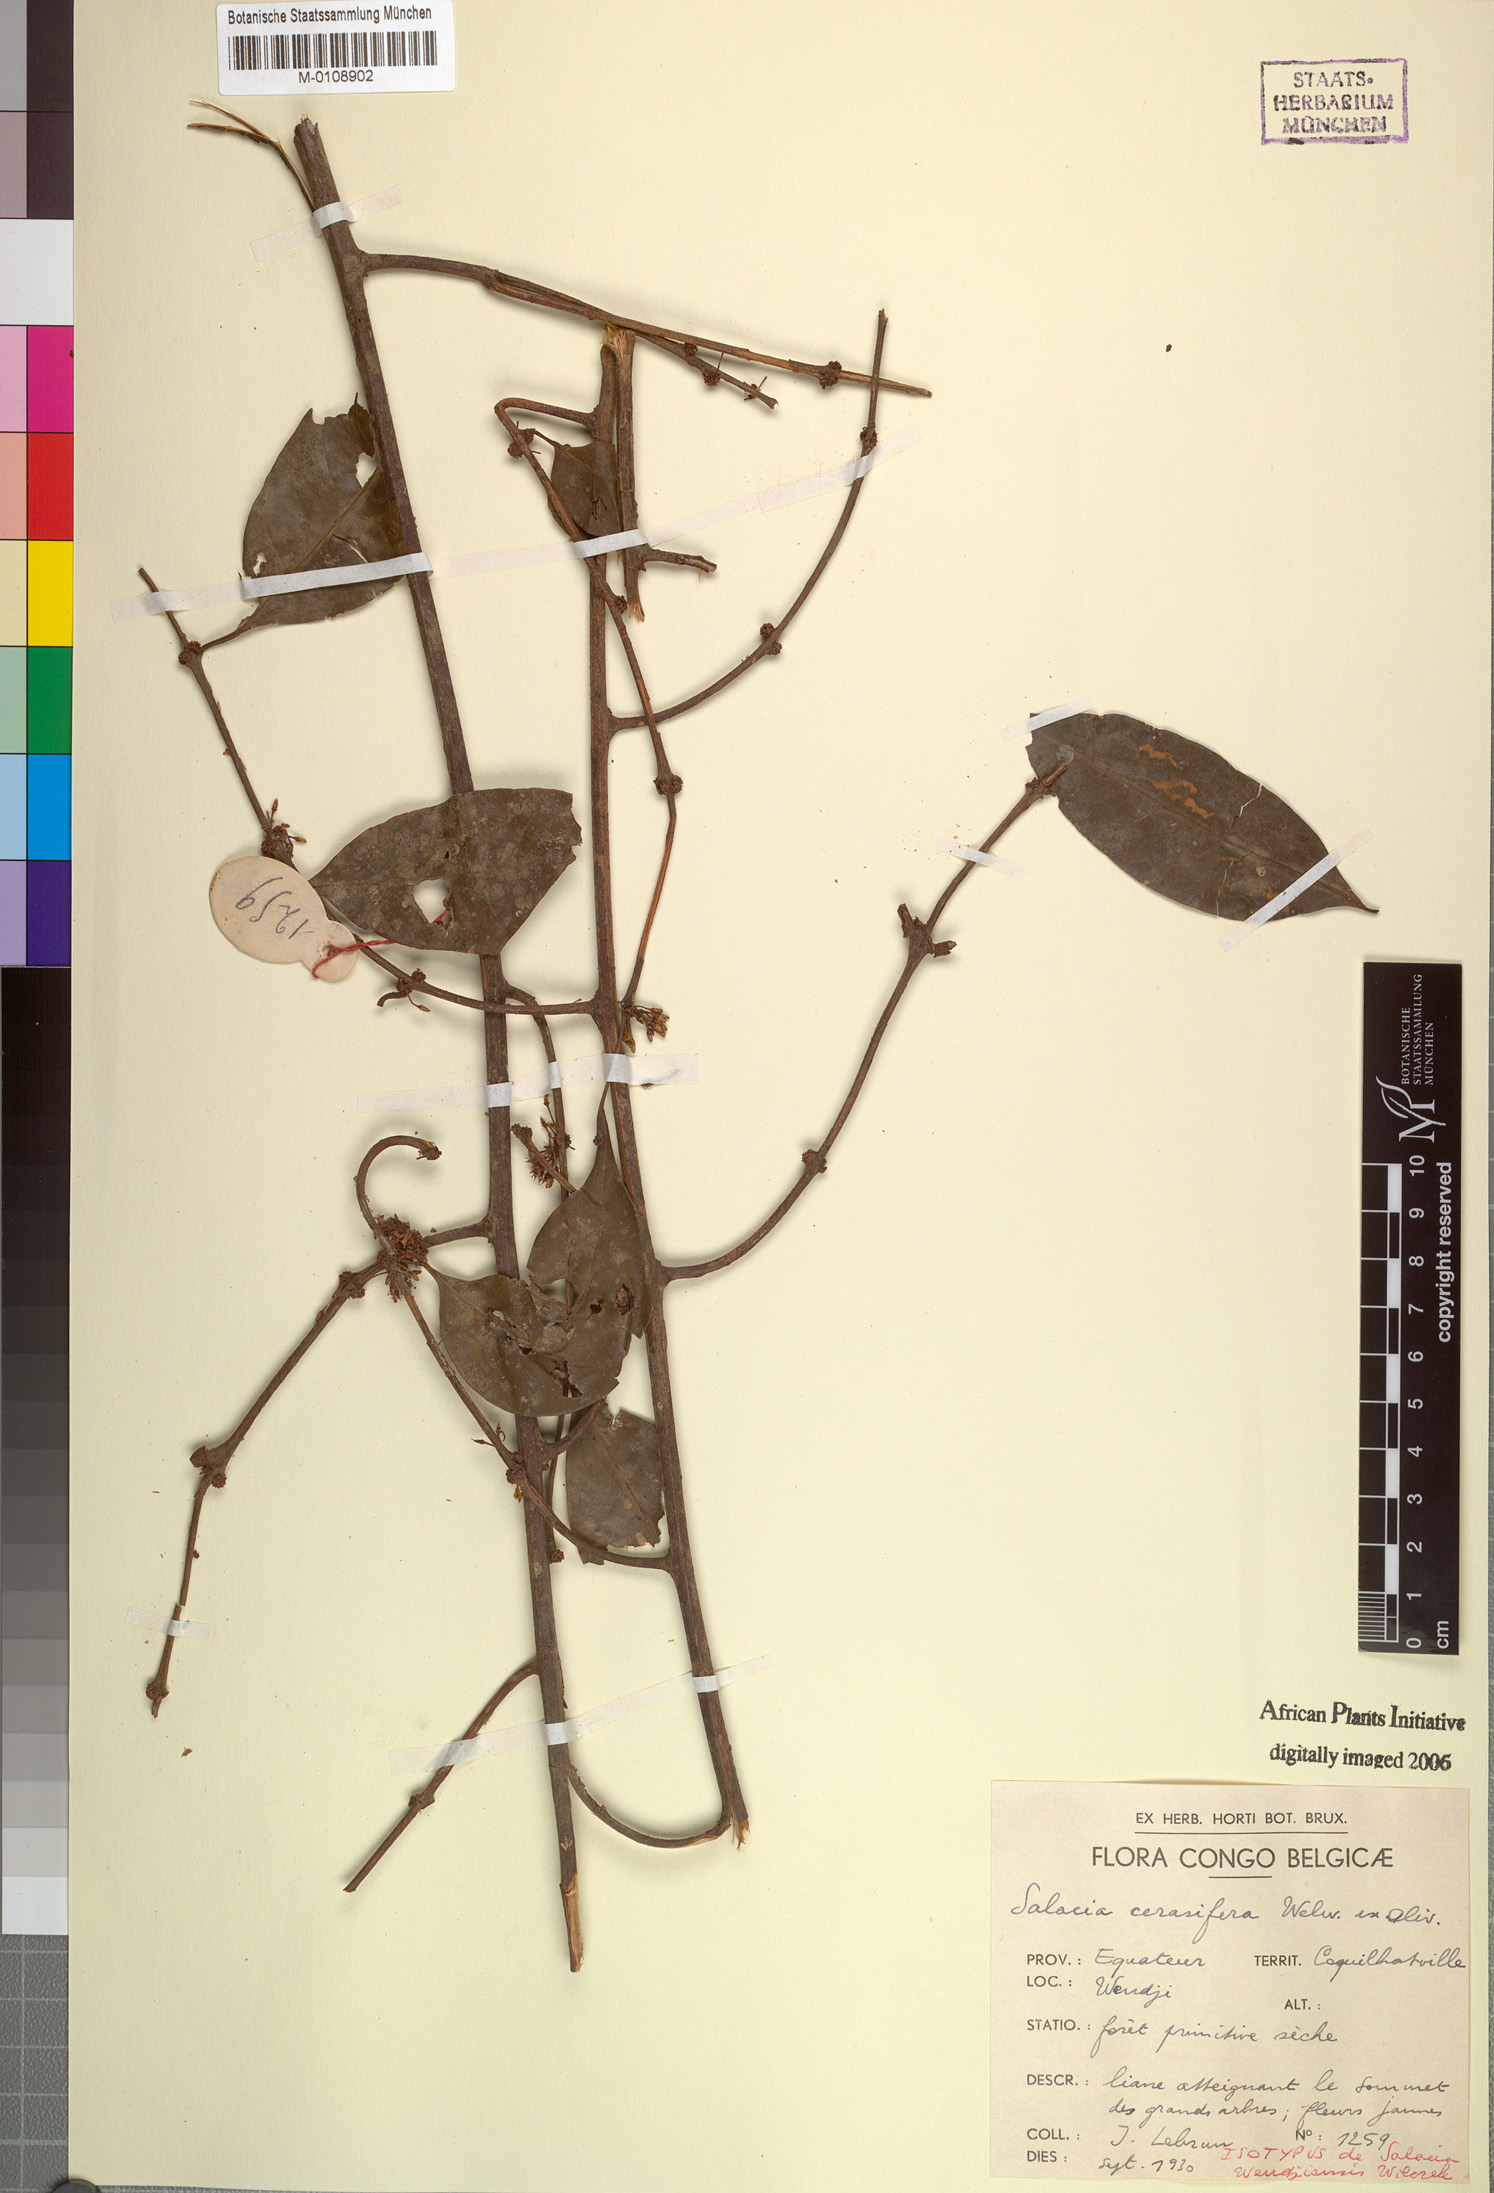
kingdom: Plantae
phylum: Tracheophyta
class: Magnoliopsida
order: Celastrales
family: Celastraceae
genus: Salacia
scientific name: Salacia cerasifera
